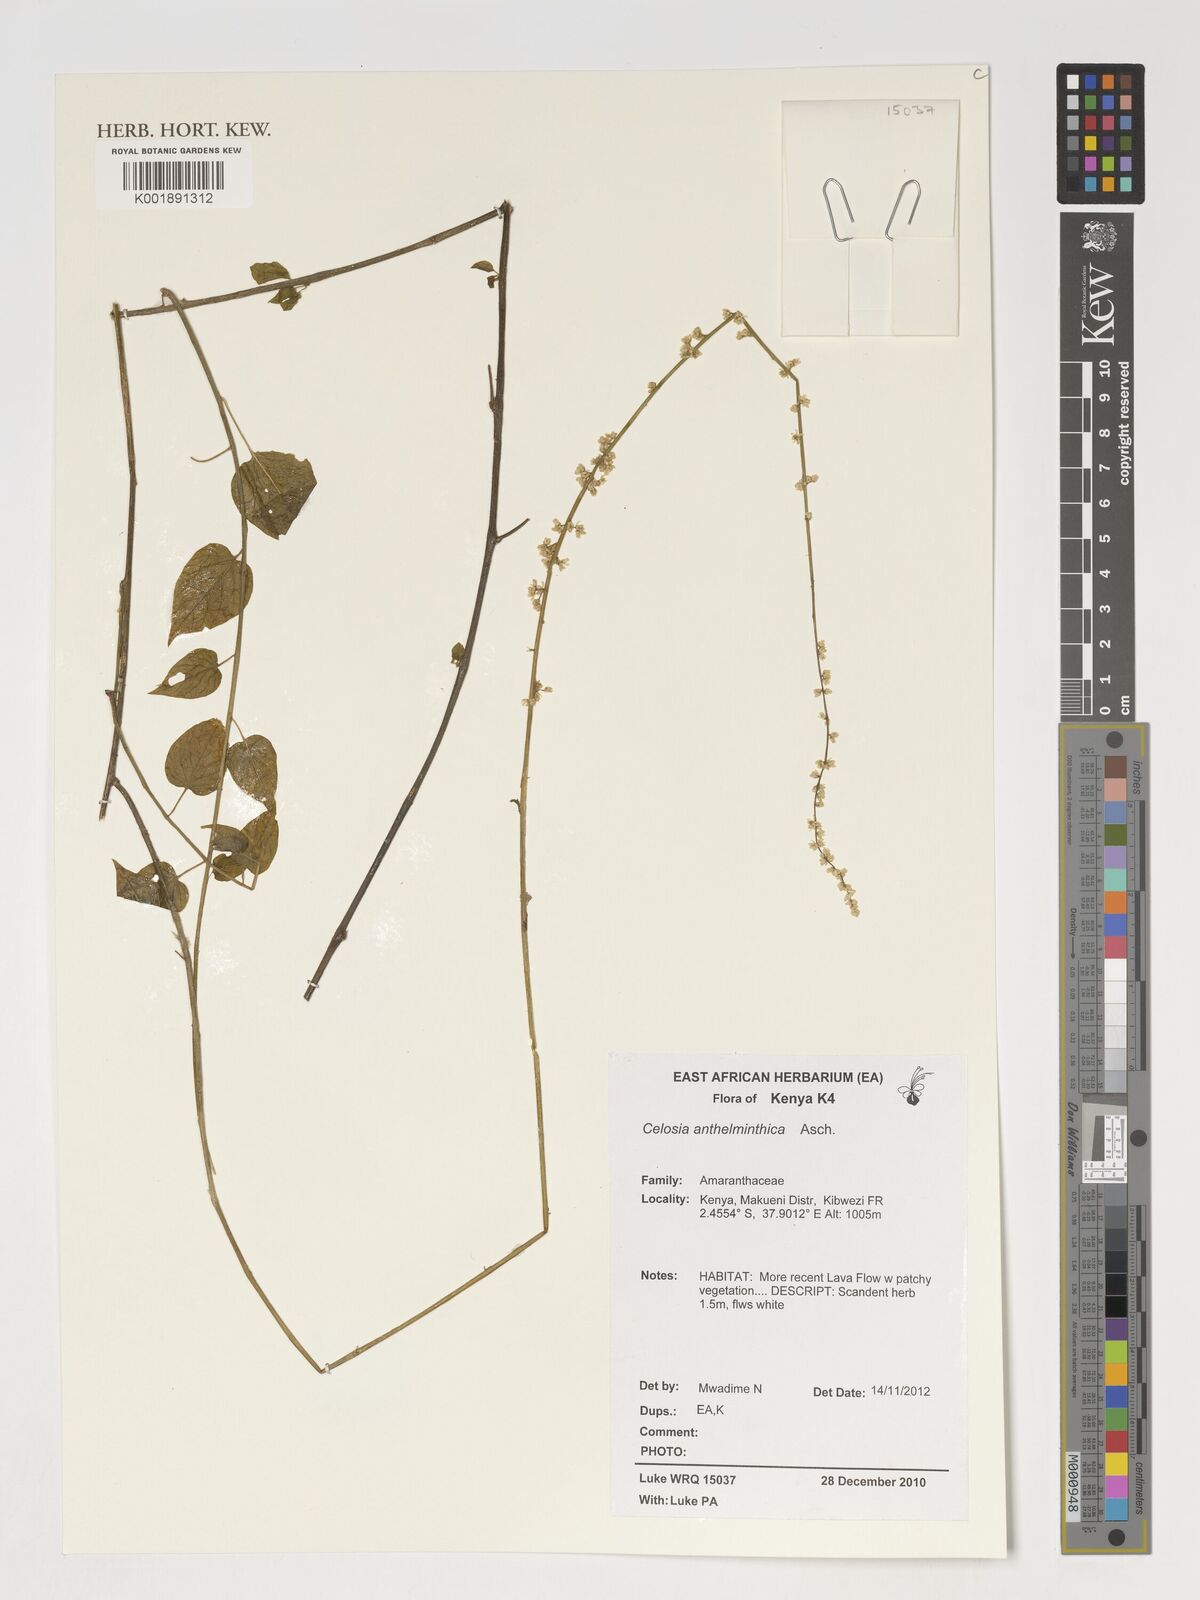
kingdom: Plantae
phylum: Tracheophyta
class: Magnoliopsida
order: Caryophyllales
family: Amaranthaceae
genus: Celosia
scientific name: Celosia anthelminthica
